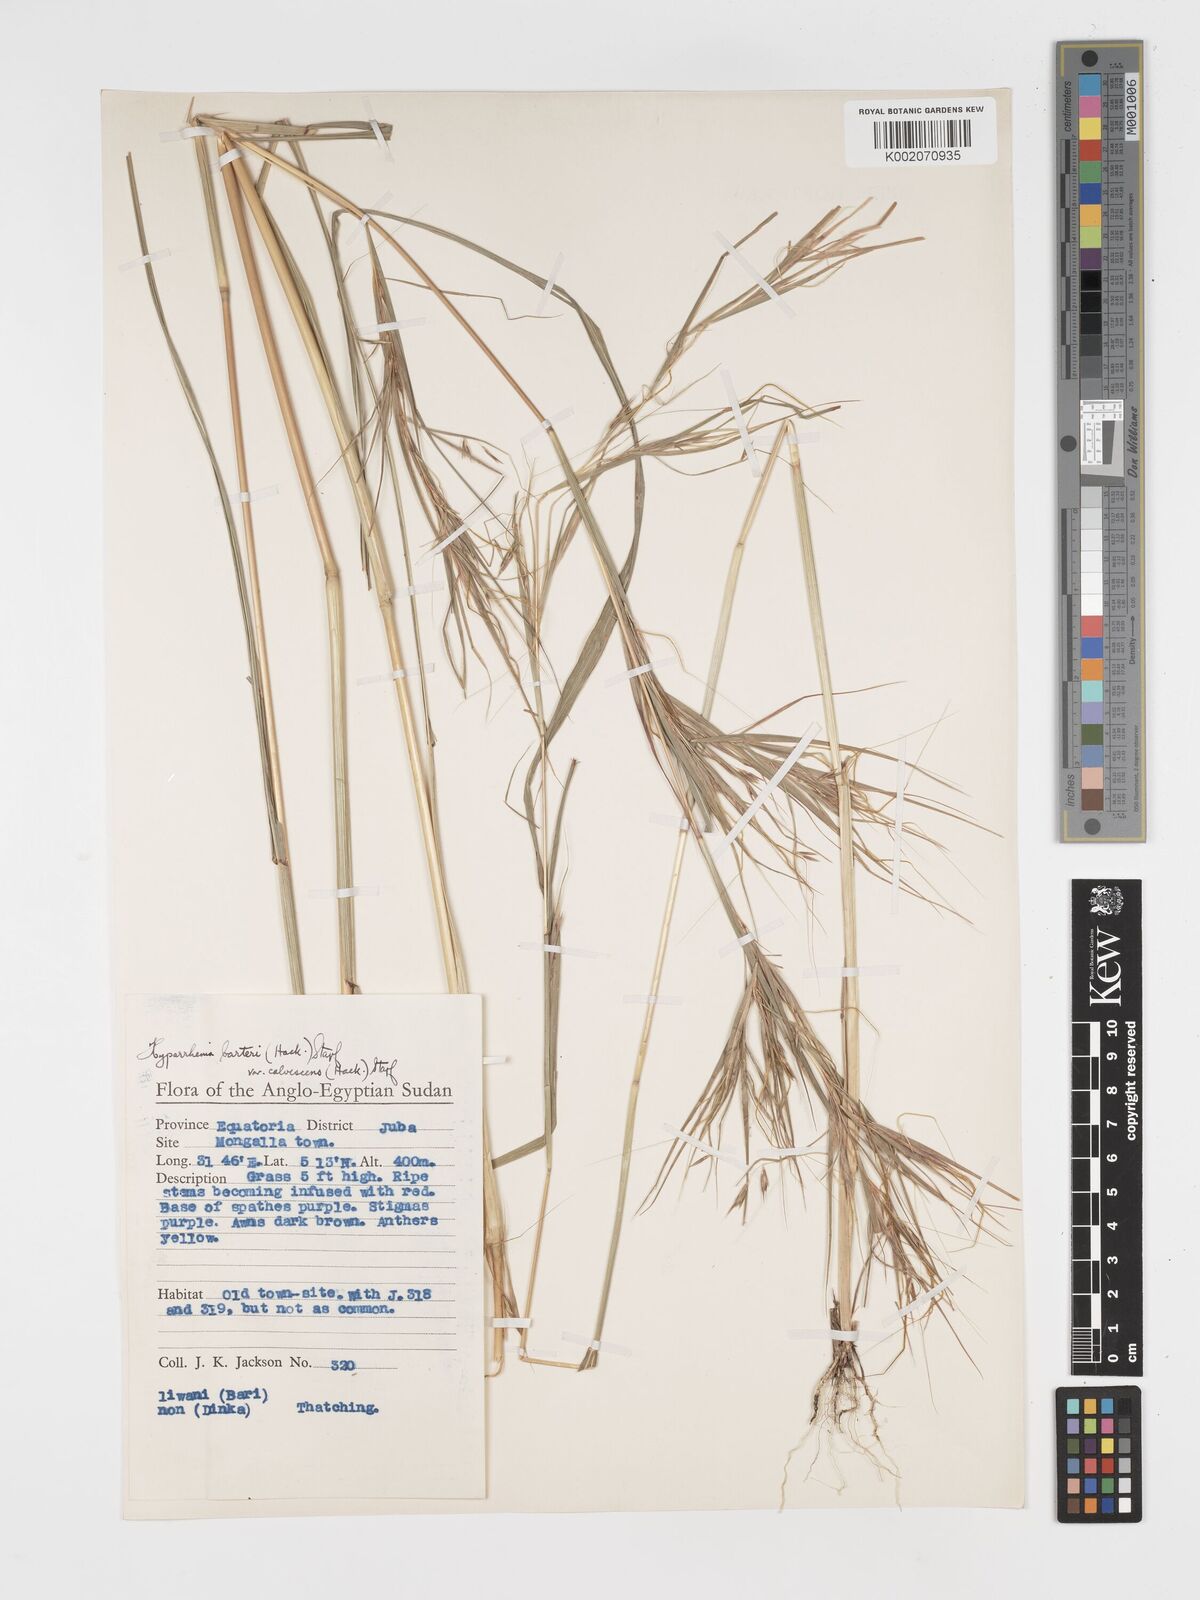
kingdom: Plantae
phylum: Tracheophyta
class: Liliopsida
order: Poales
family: Poaceae
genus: Hyparrhenia
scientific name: Hyparrhenia figariana
